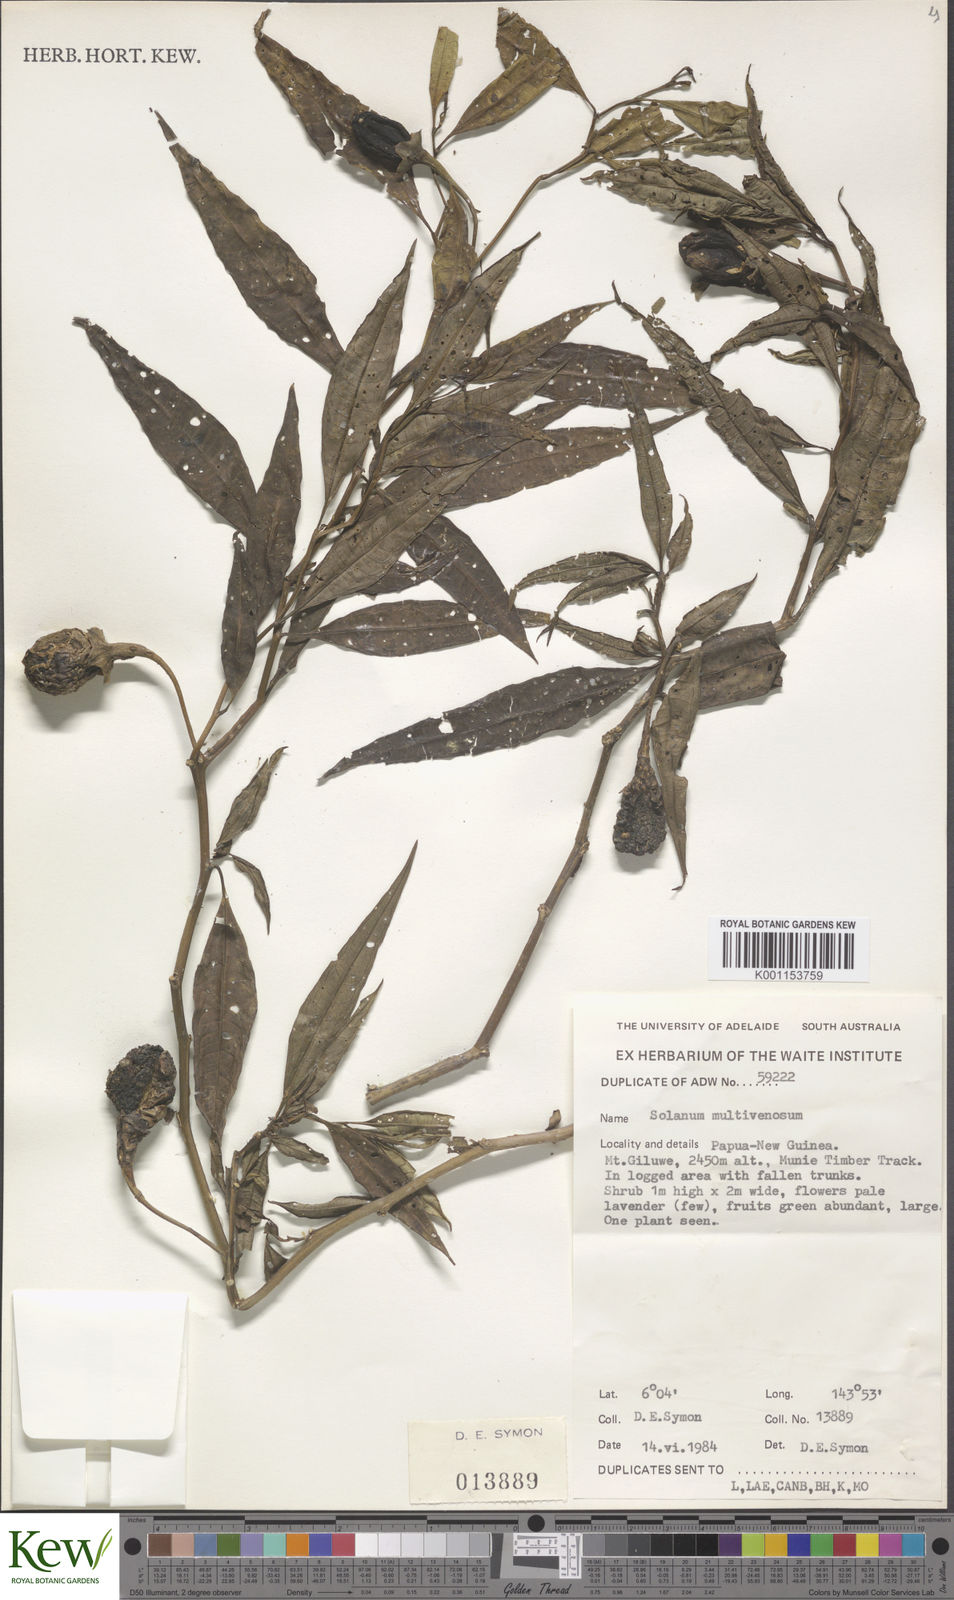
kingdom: Plantae
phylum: Tracheophyta
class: Magnoliopsida
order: Solanales
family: Solanaceae
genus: Solanum
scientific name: Solanum multivenosum
